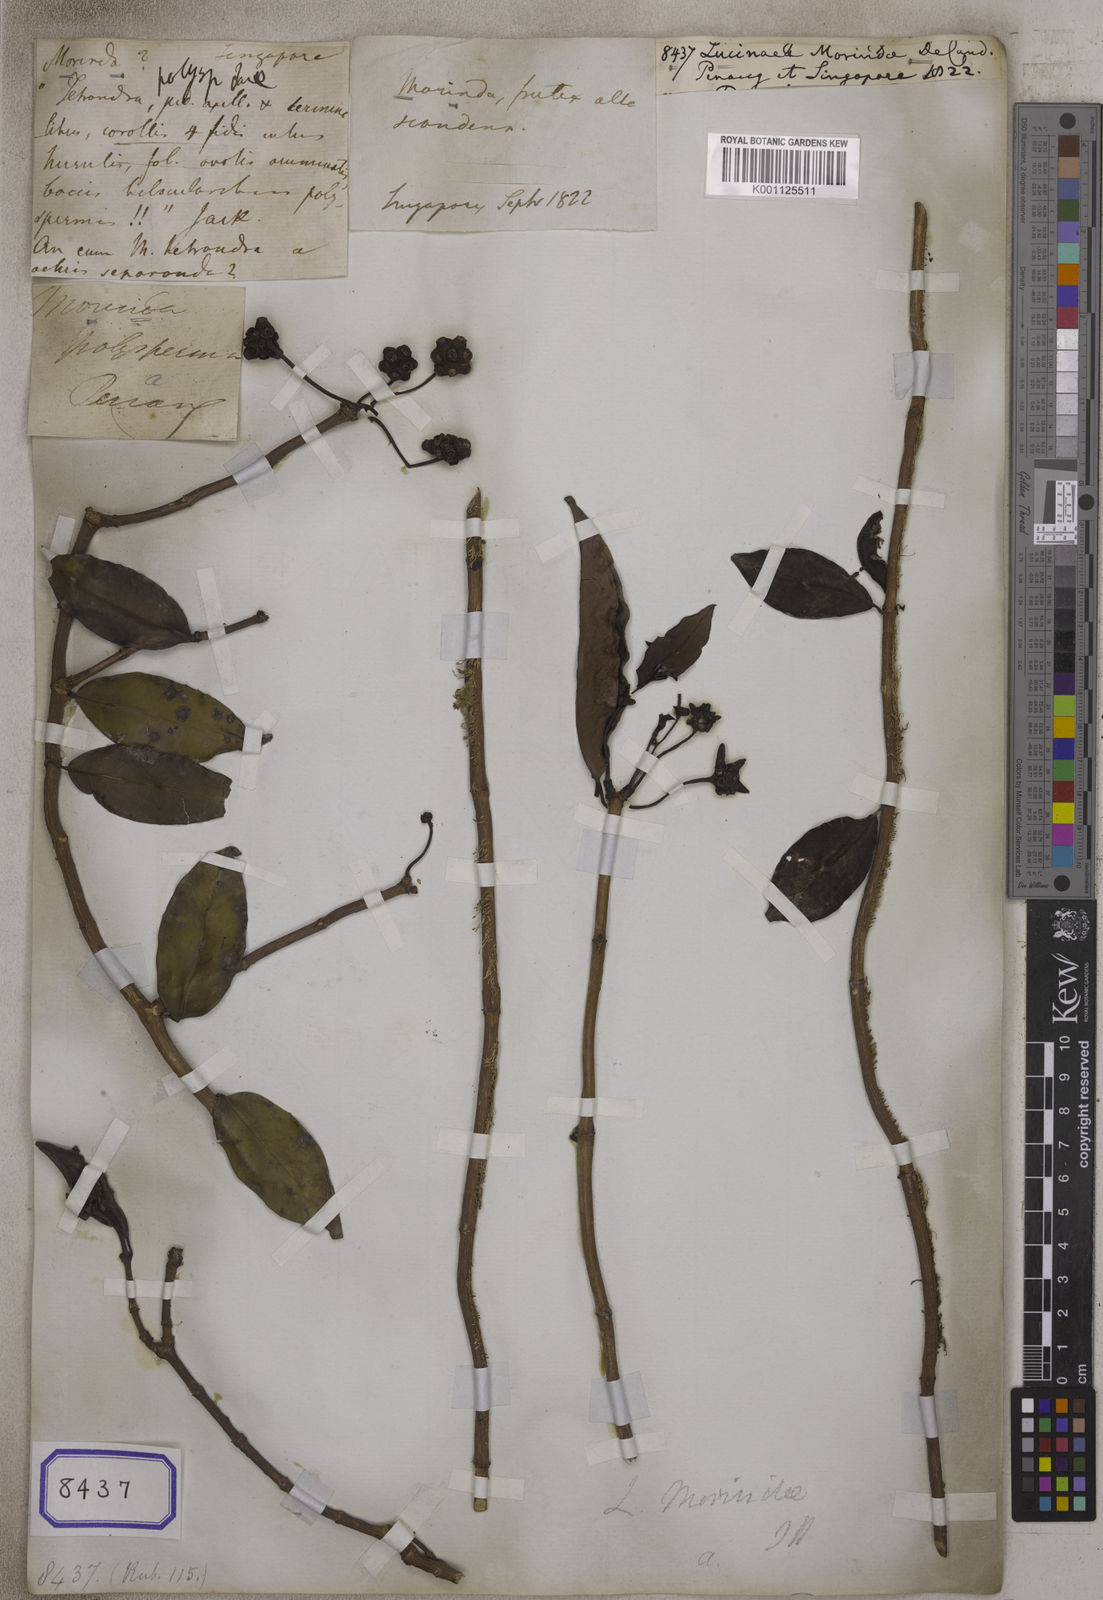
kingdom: Plantae
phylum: Tracheophyta
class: Magnoliopsida
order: Gentianales
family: Rubiaceae
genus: Schradera
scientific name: Schradera polysperma
